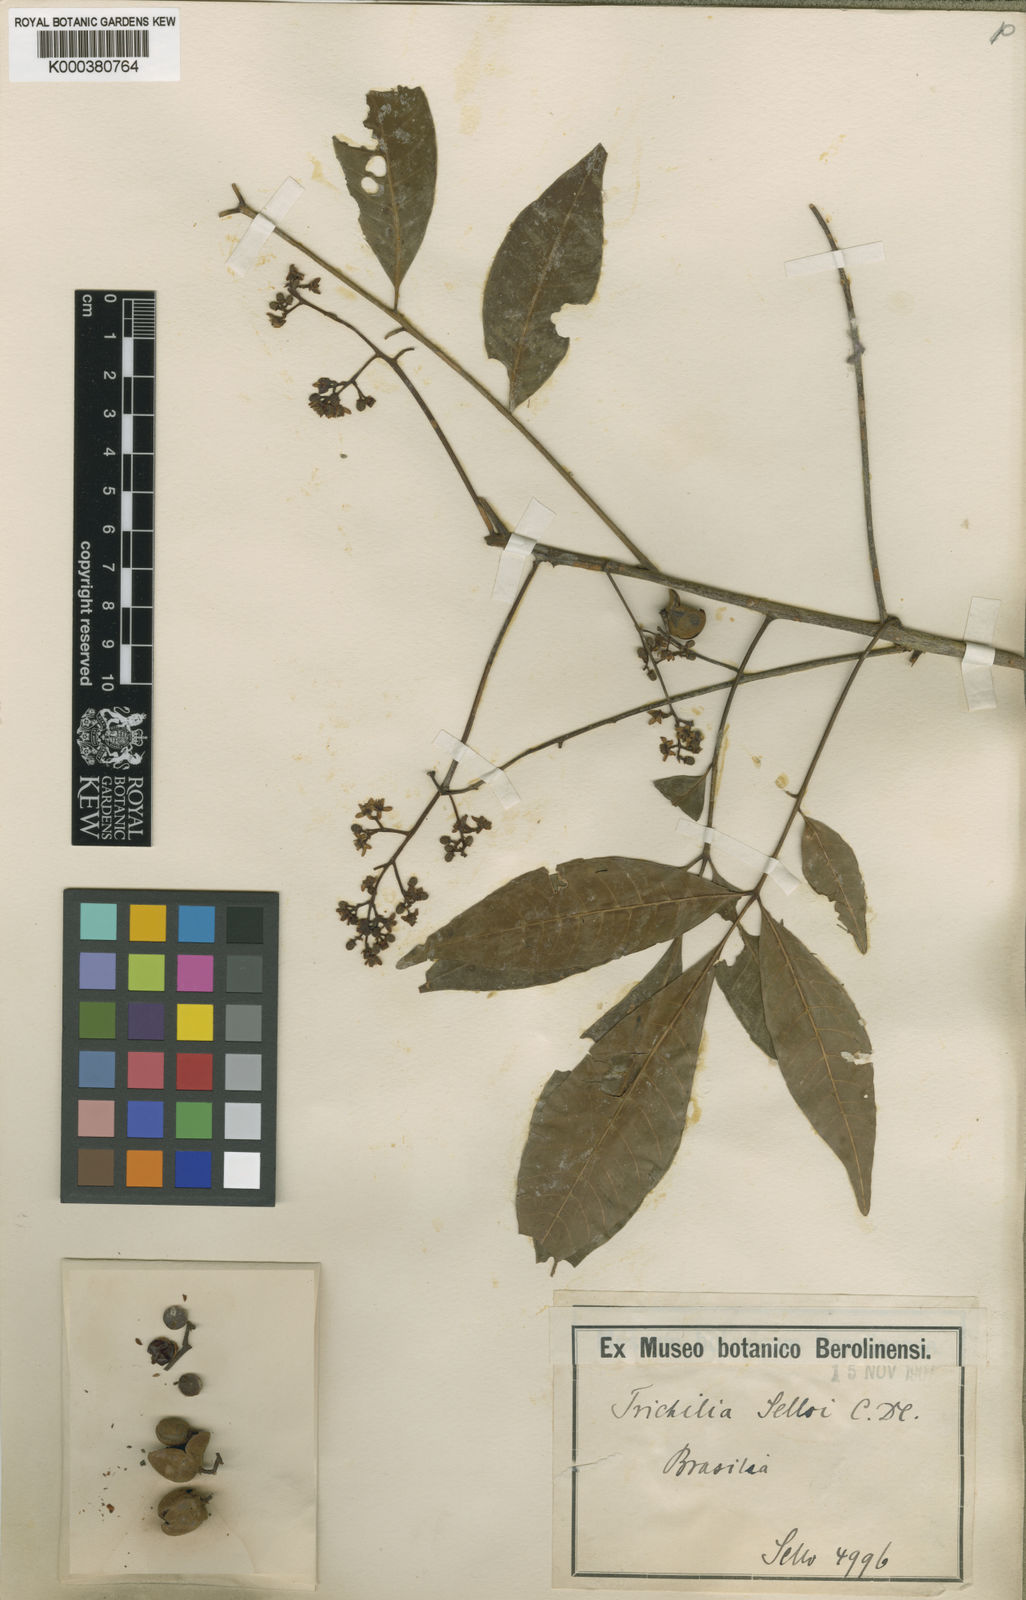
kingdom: Plantae
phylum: Tracheophyta
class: Magnoliopsida
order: Sapindales
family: Meliaceae
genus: Trichilia
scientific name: Trichilia pallens
